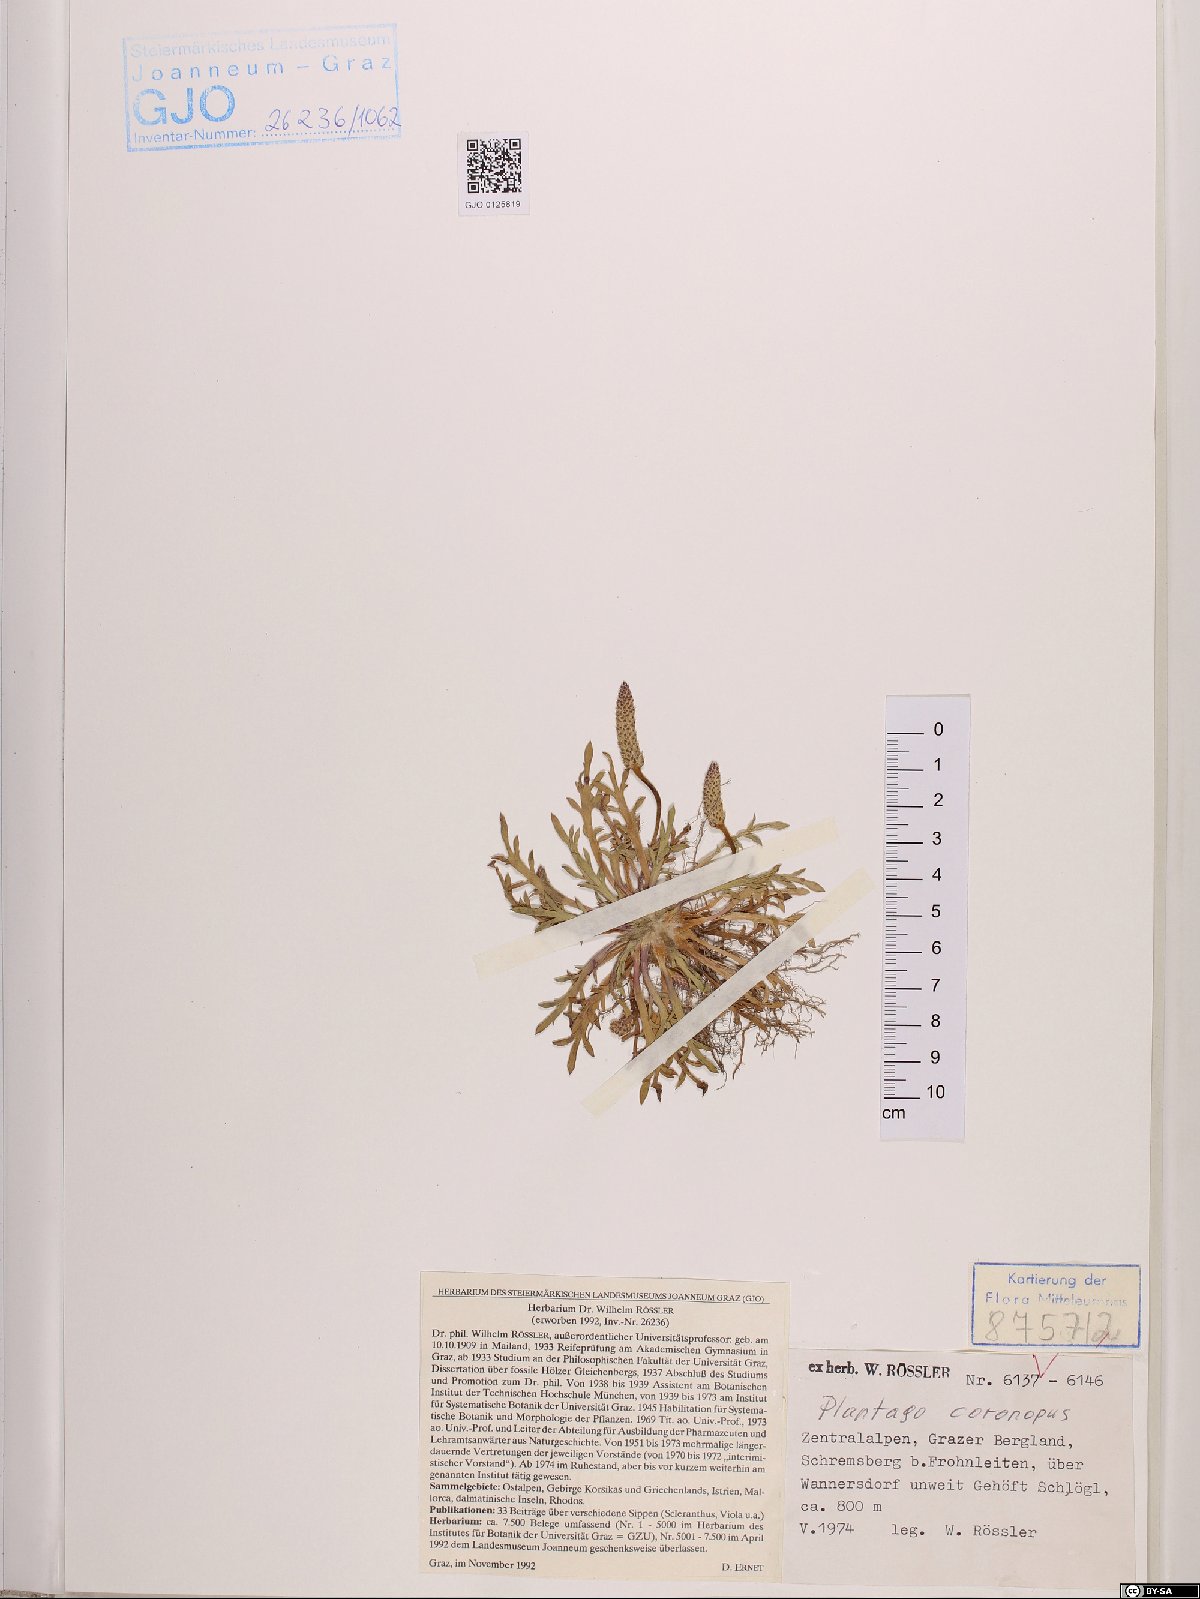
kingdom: Plantae
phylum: Tracheophyta
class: Magnoliopsida
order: Lamiales
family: Plantaginaceae
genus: Plantago
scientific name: Plantago coronopus
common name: Buck's-horn plantain
